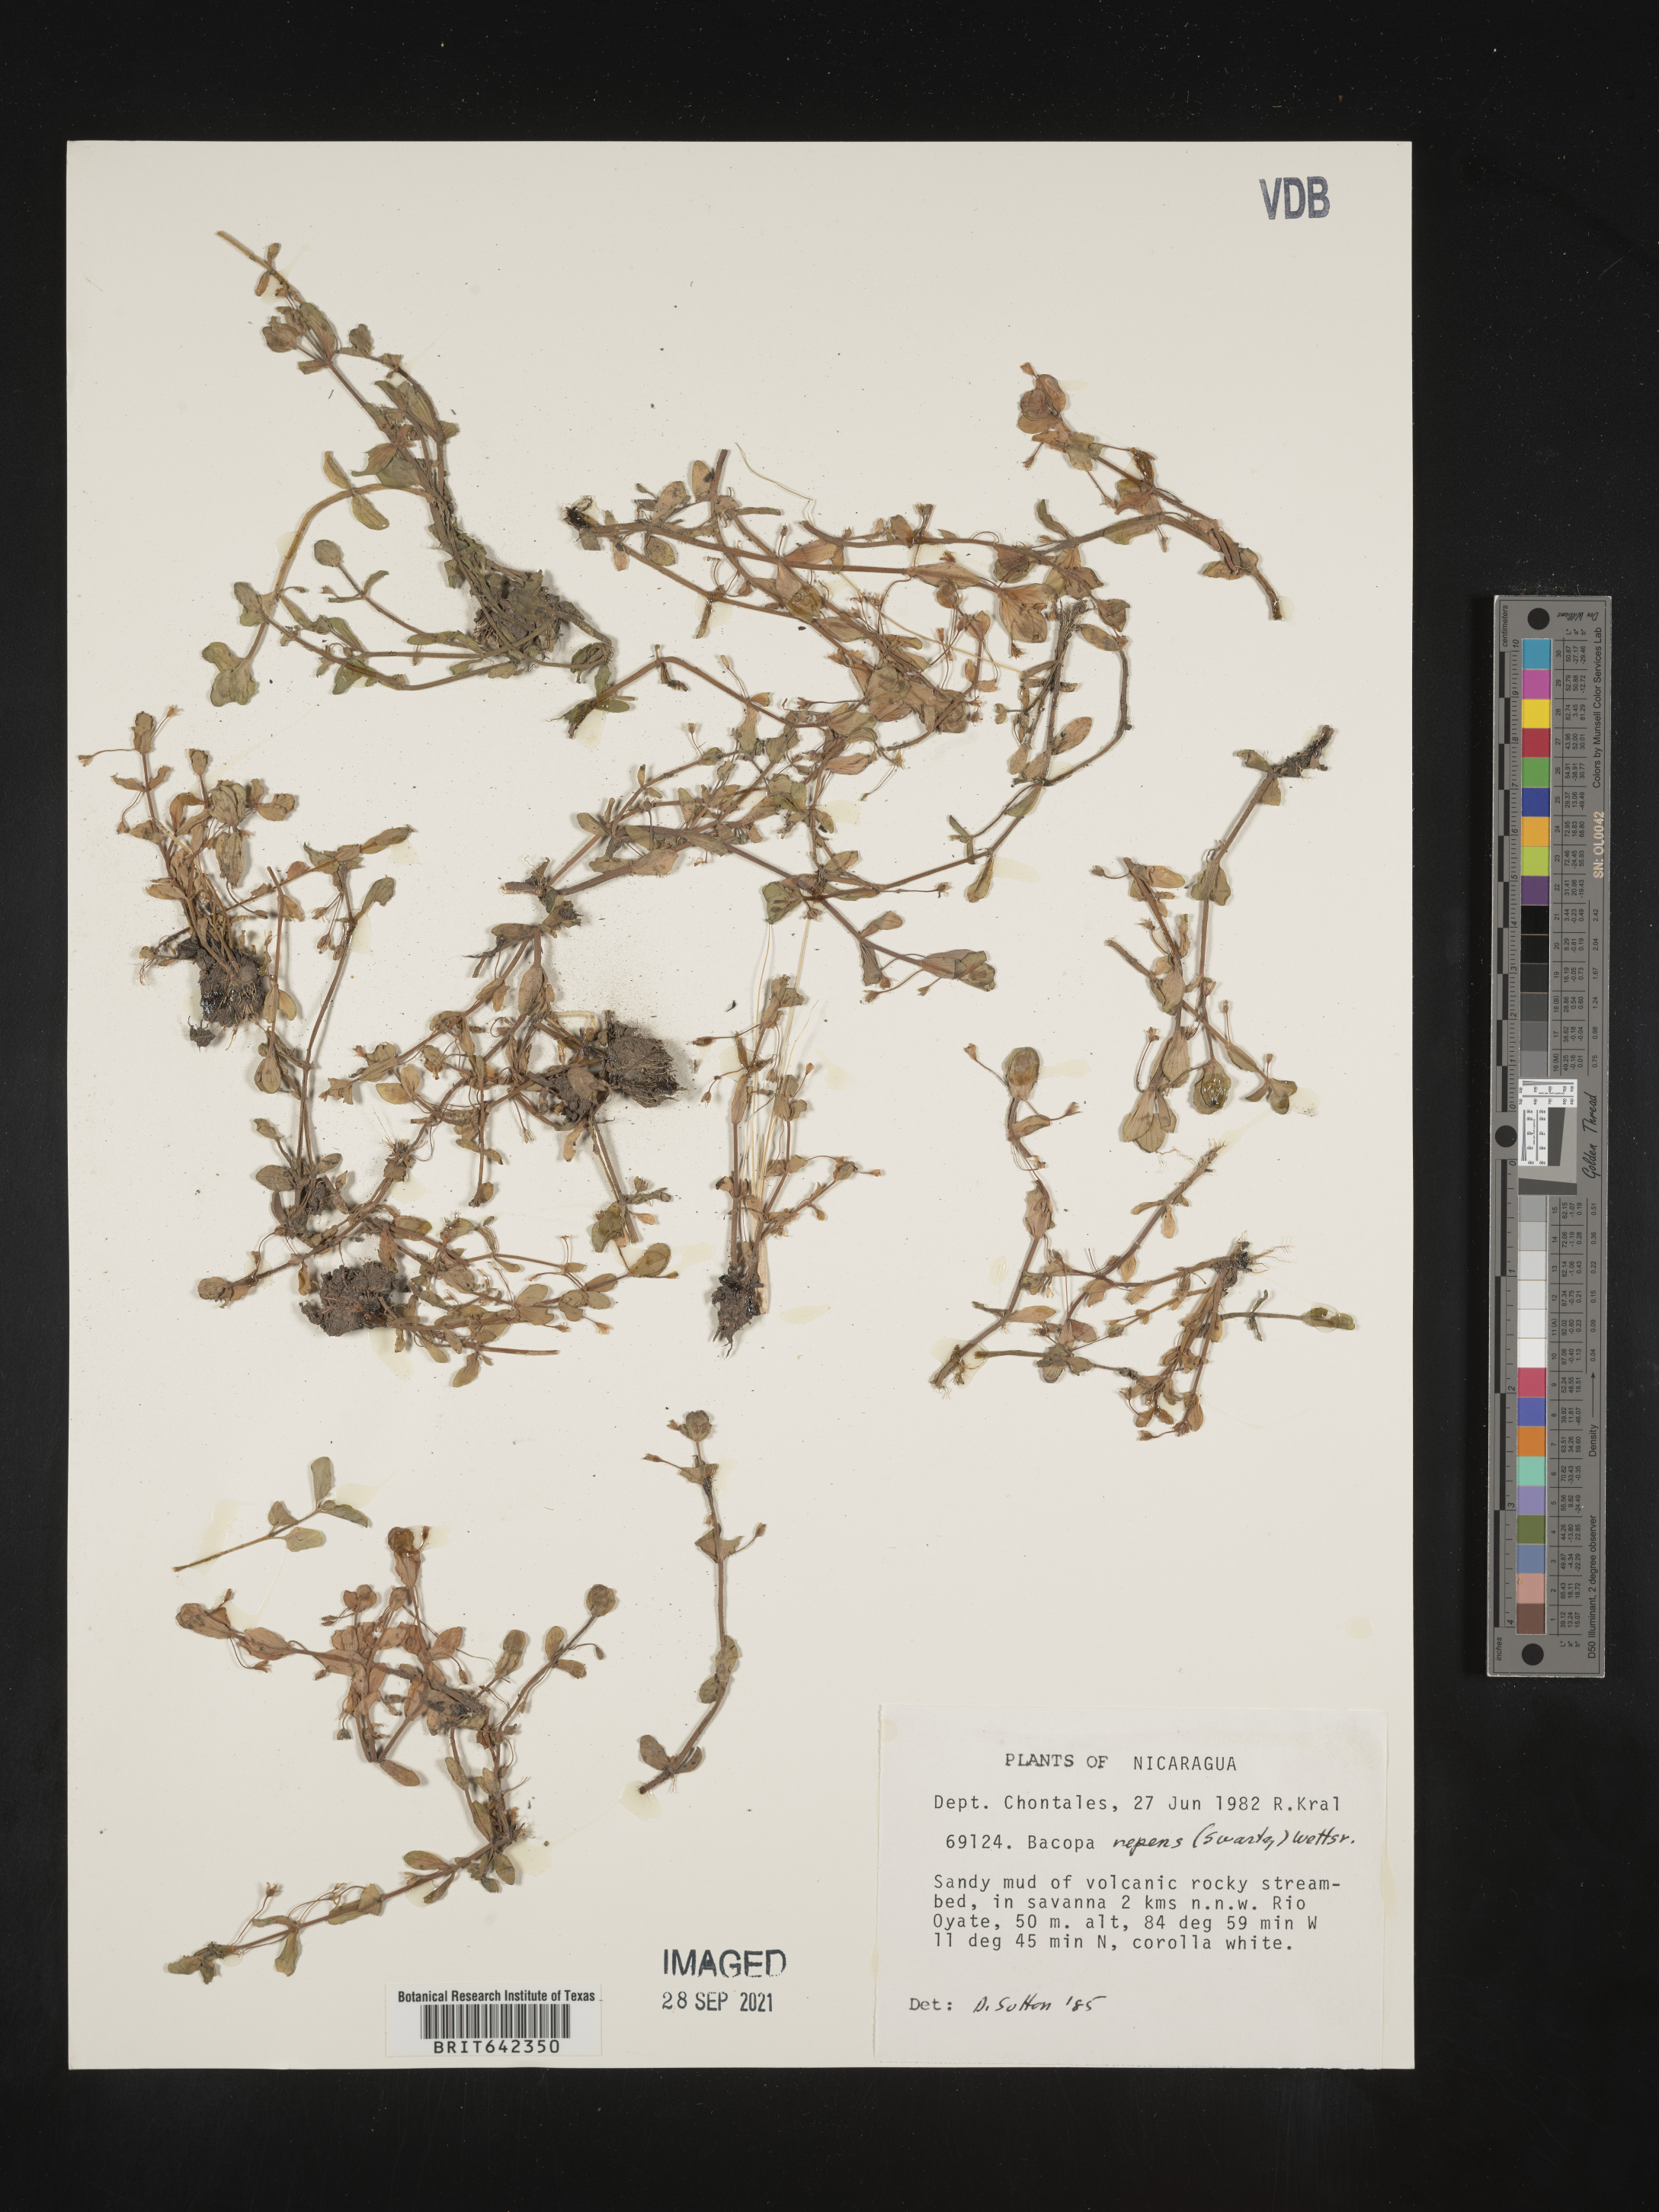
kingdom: Plantae
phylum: Tracheophyta
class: Magnoliopsida
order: Lamiales
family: Plantaginaceae
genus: Bacopa
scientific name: Bacopa
